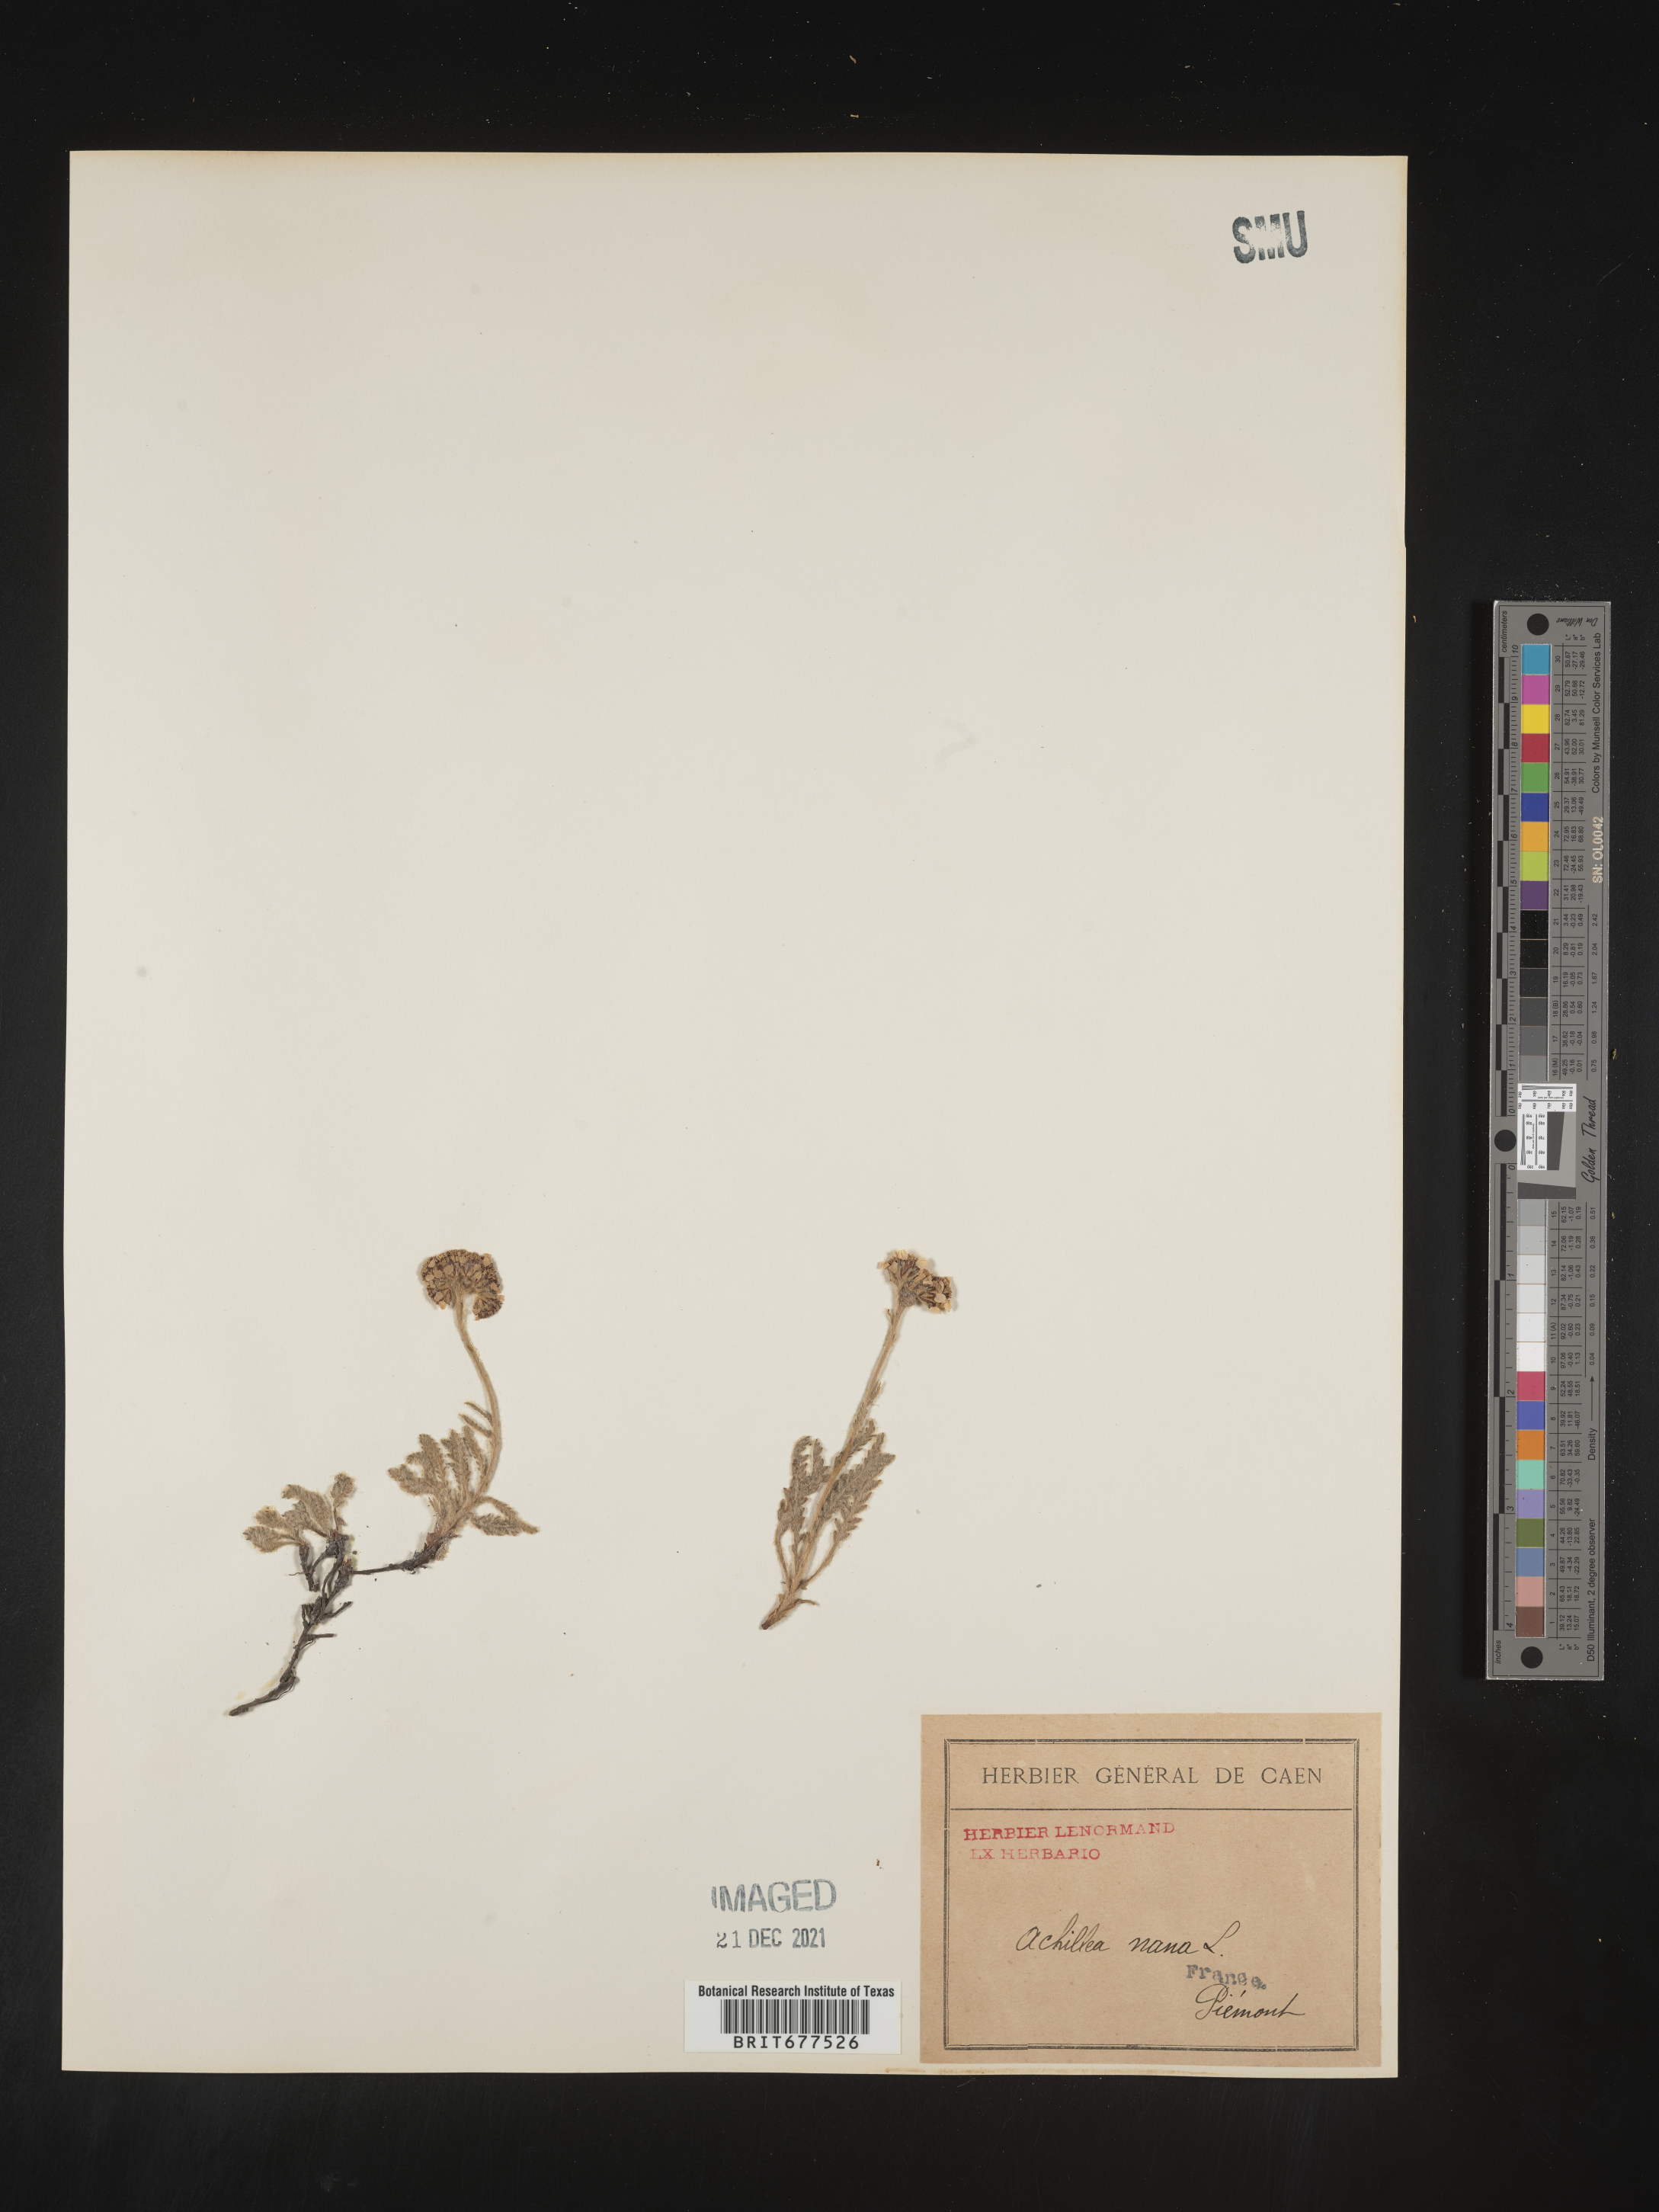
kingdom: Plantae
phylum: Tracheophyta
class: Magnoliopsida
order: Asterales
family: Asteraceae
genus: Achillea
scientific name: Achillea
